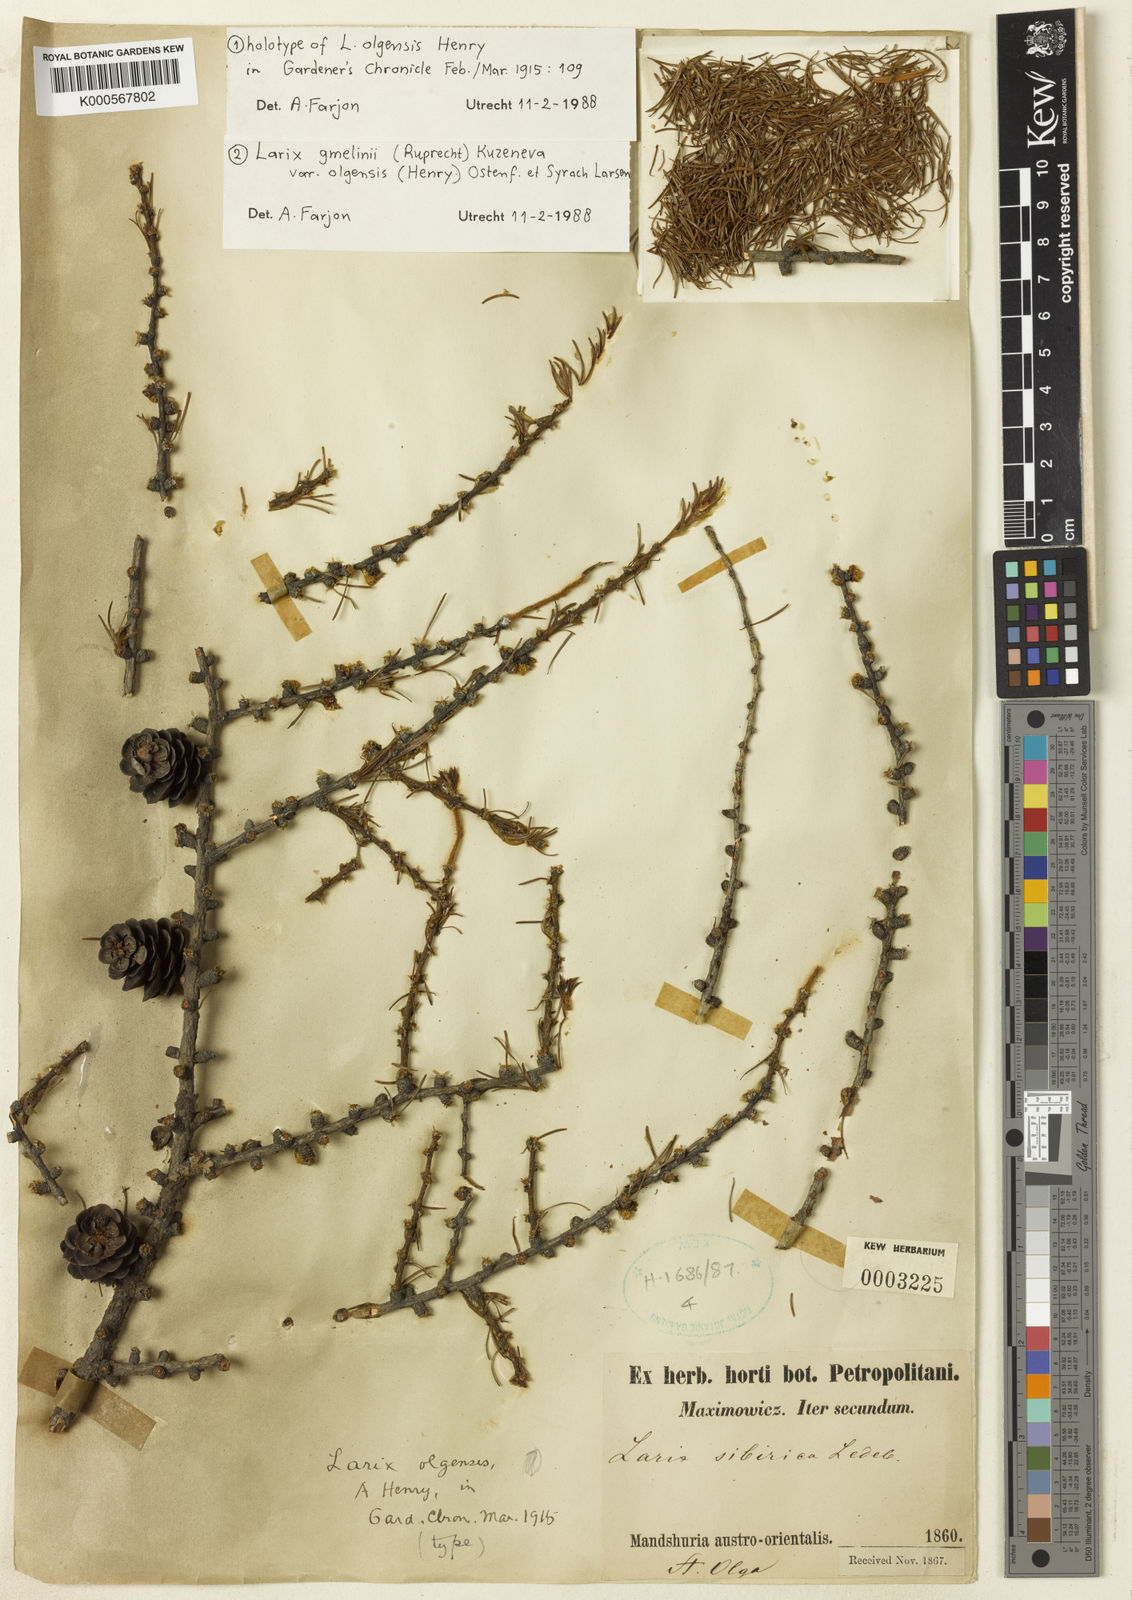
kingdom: Plantae
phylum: Tracheophyta
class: Pinopsida
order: Pinales
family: Pinaceae
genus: Larix
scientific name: Larix gmelinii
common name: Dahurian larch
